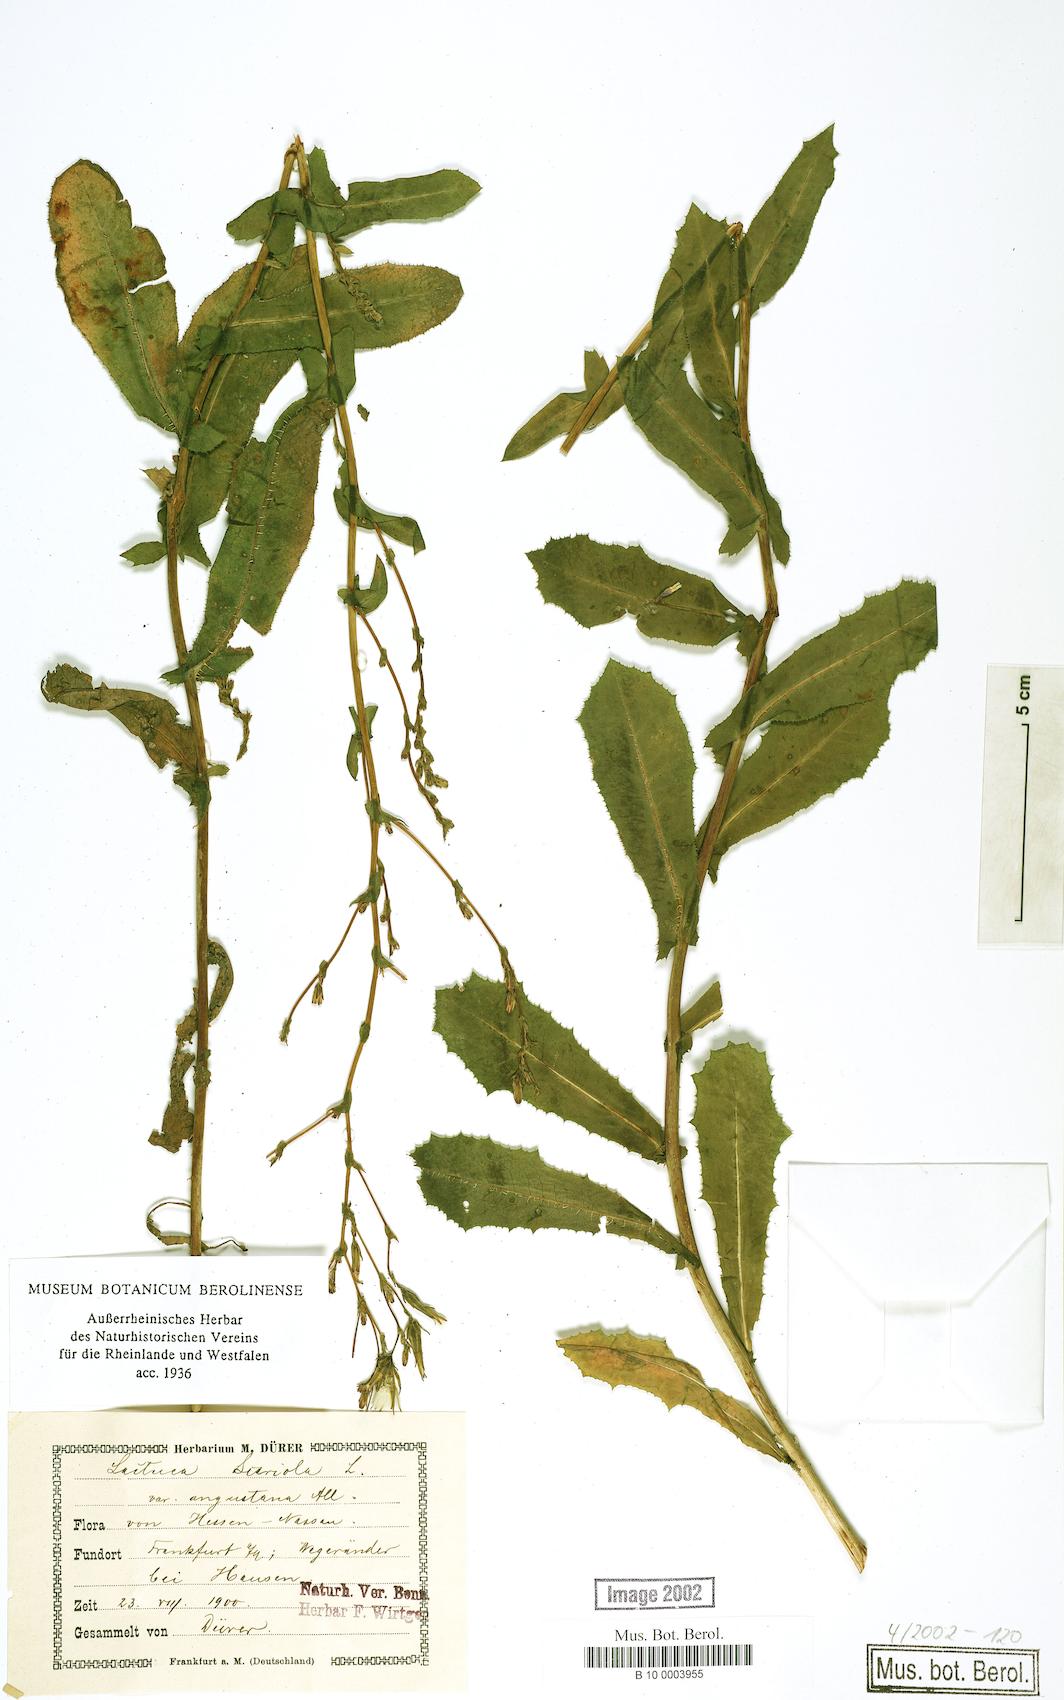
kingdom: Plantae
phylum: Tracheophyta
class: Magnoliopsida
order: Asterales
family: Asteraceae
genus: Lactuca
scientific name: Lactuca serriola
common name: Prickly lettuce
